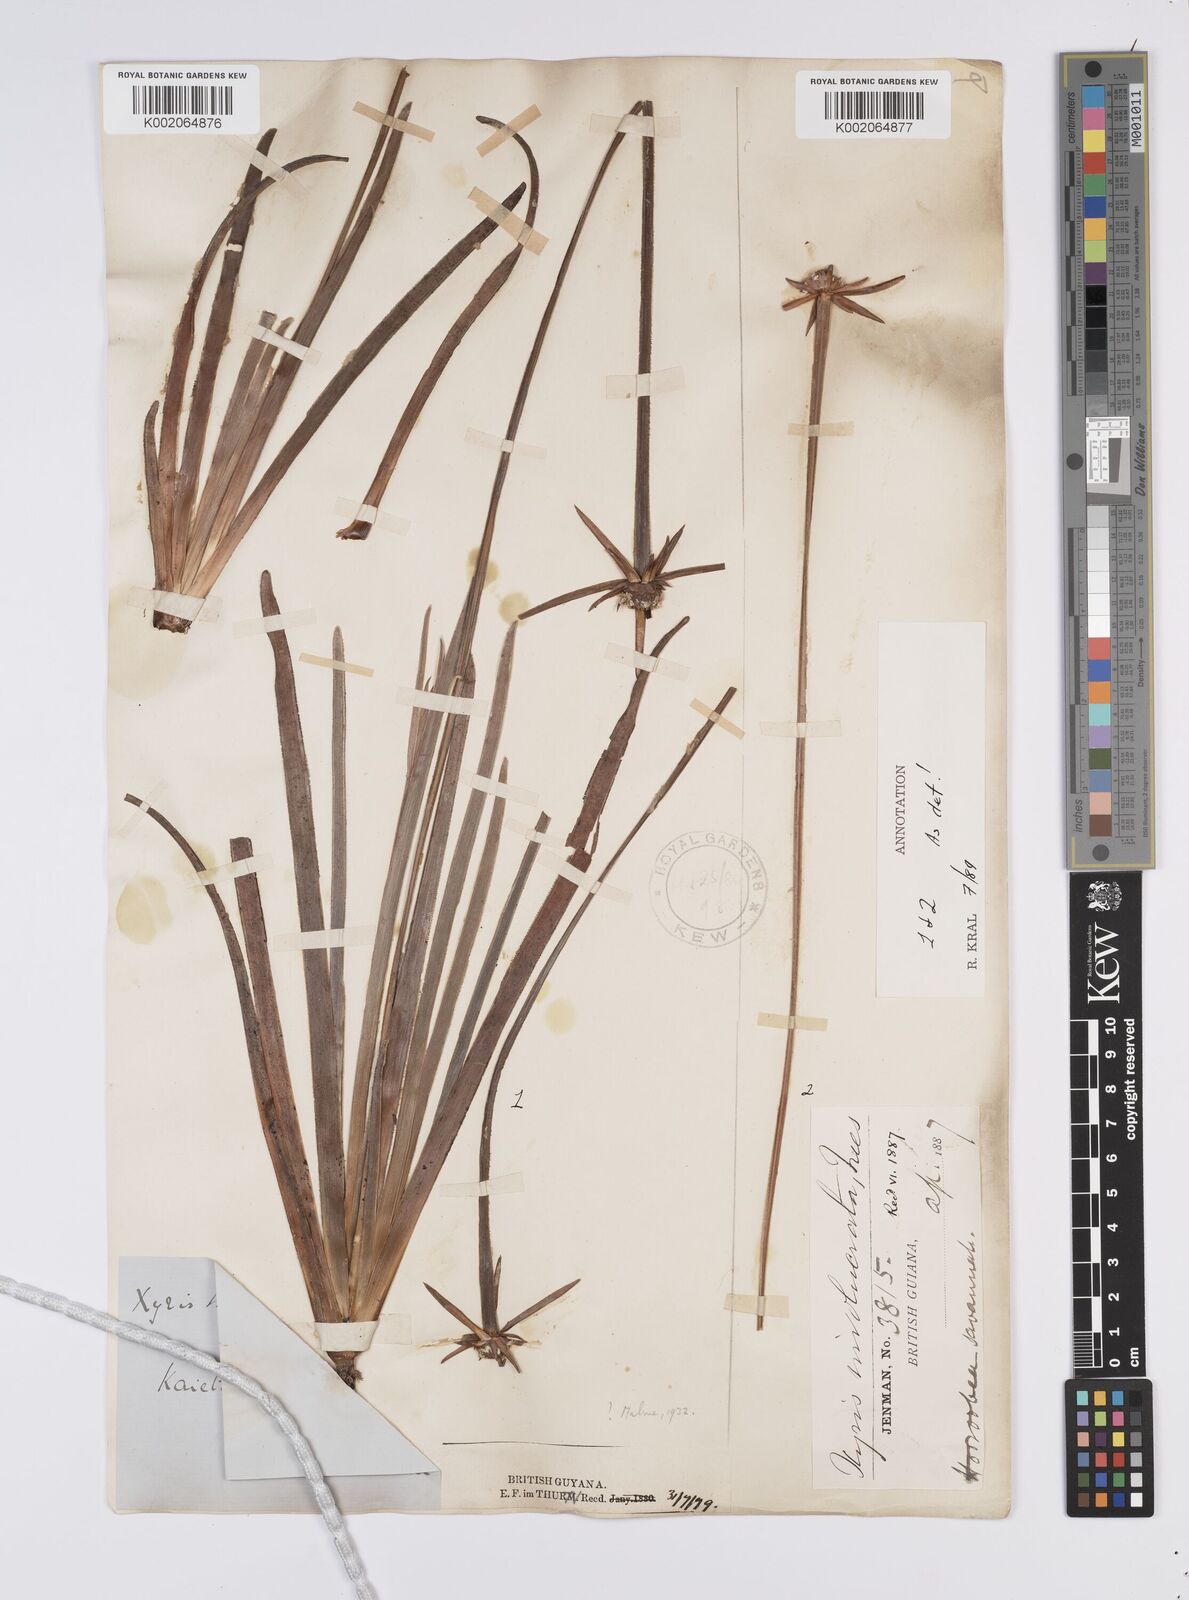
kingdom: Plantae
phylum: Tracheophyta
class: Liliopsida
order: Poales
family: Xyridaceae
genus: Xyris
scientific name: Xyris involucrata
